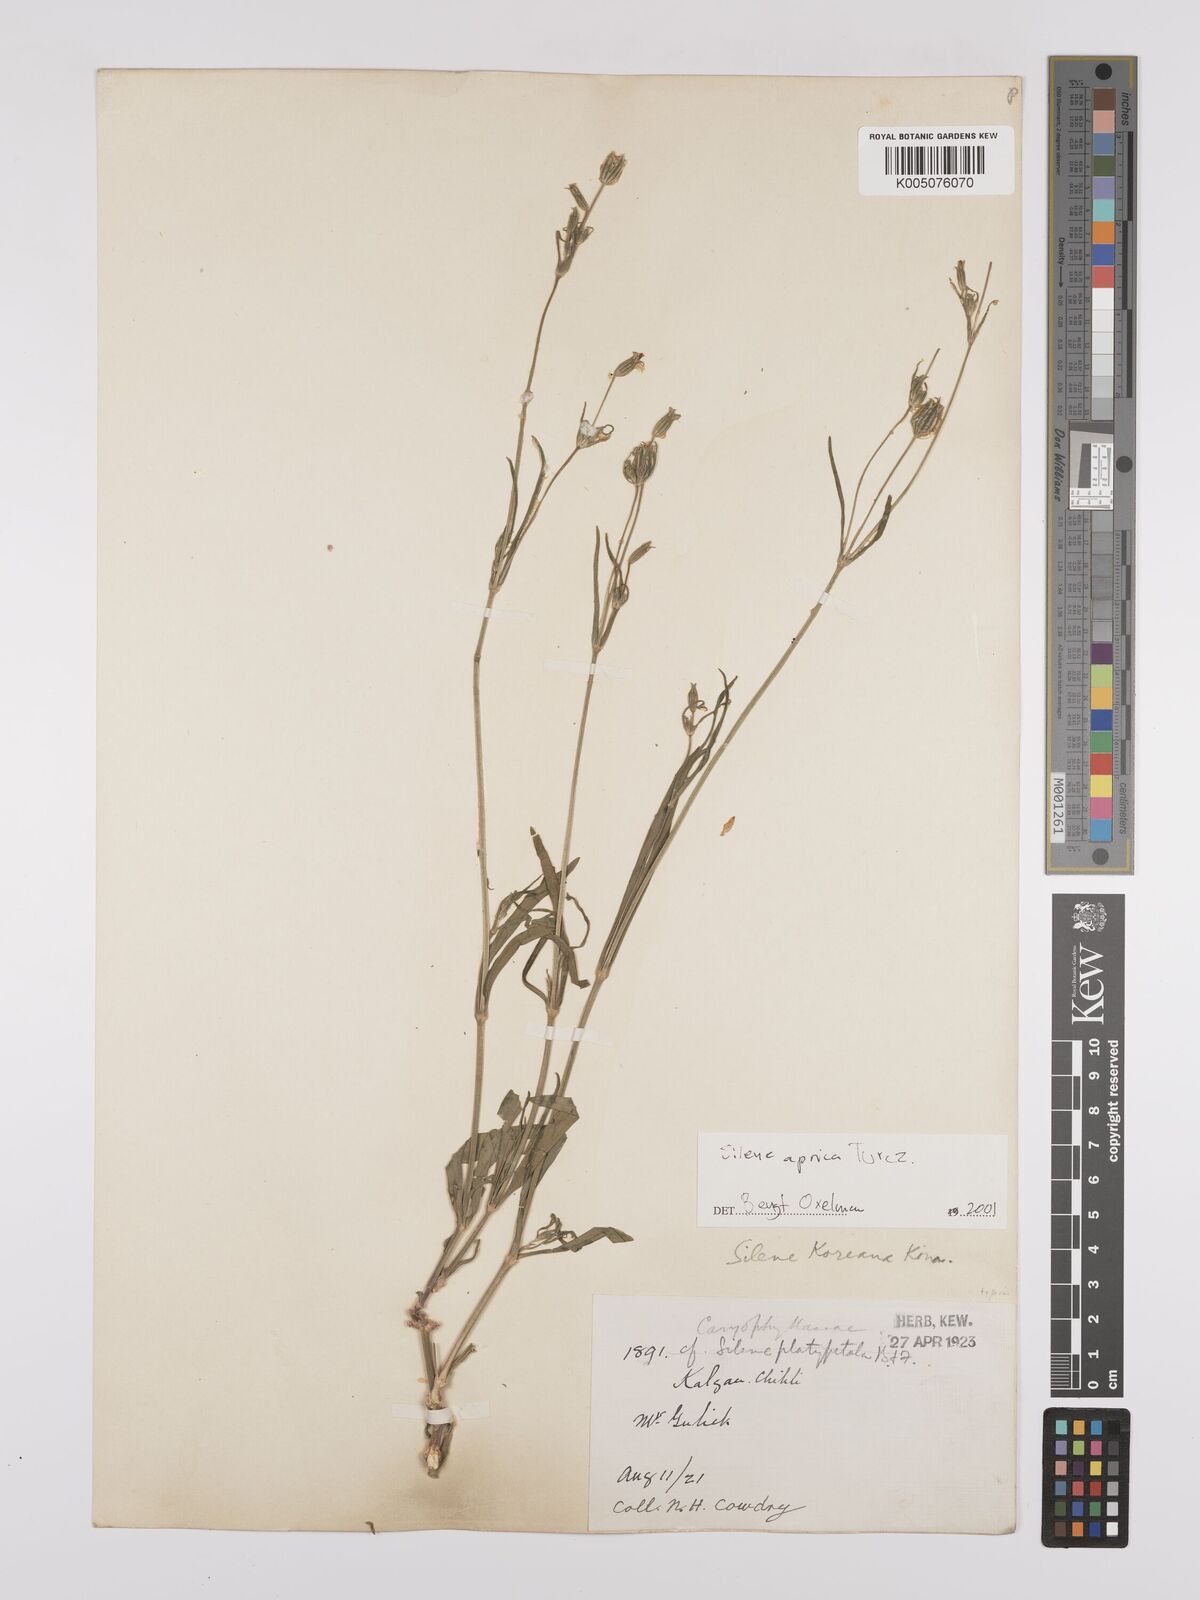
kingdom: Plantae
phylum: Tracheophyta
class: Magnoliopsida
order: Caryophyllales
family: Caryophyllaceae
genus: Silene
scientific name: Silene aprica
